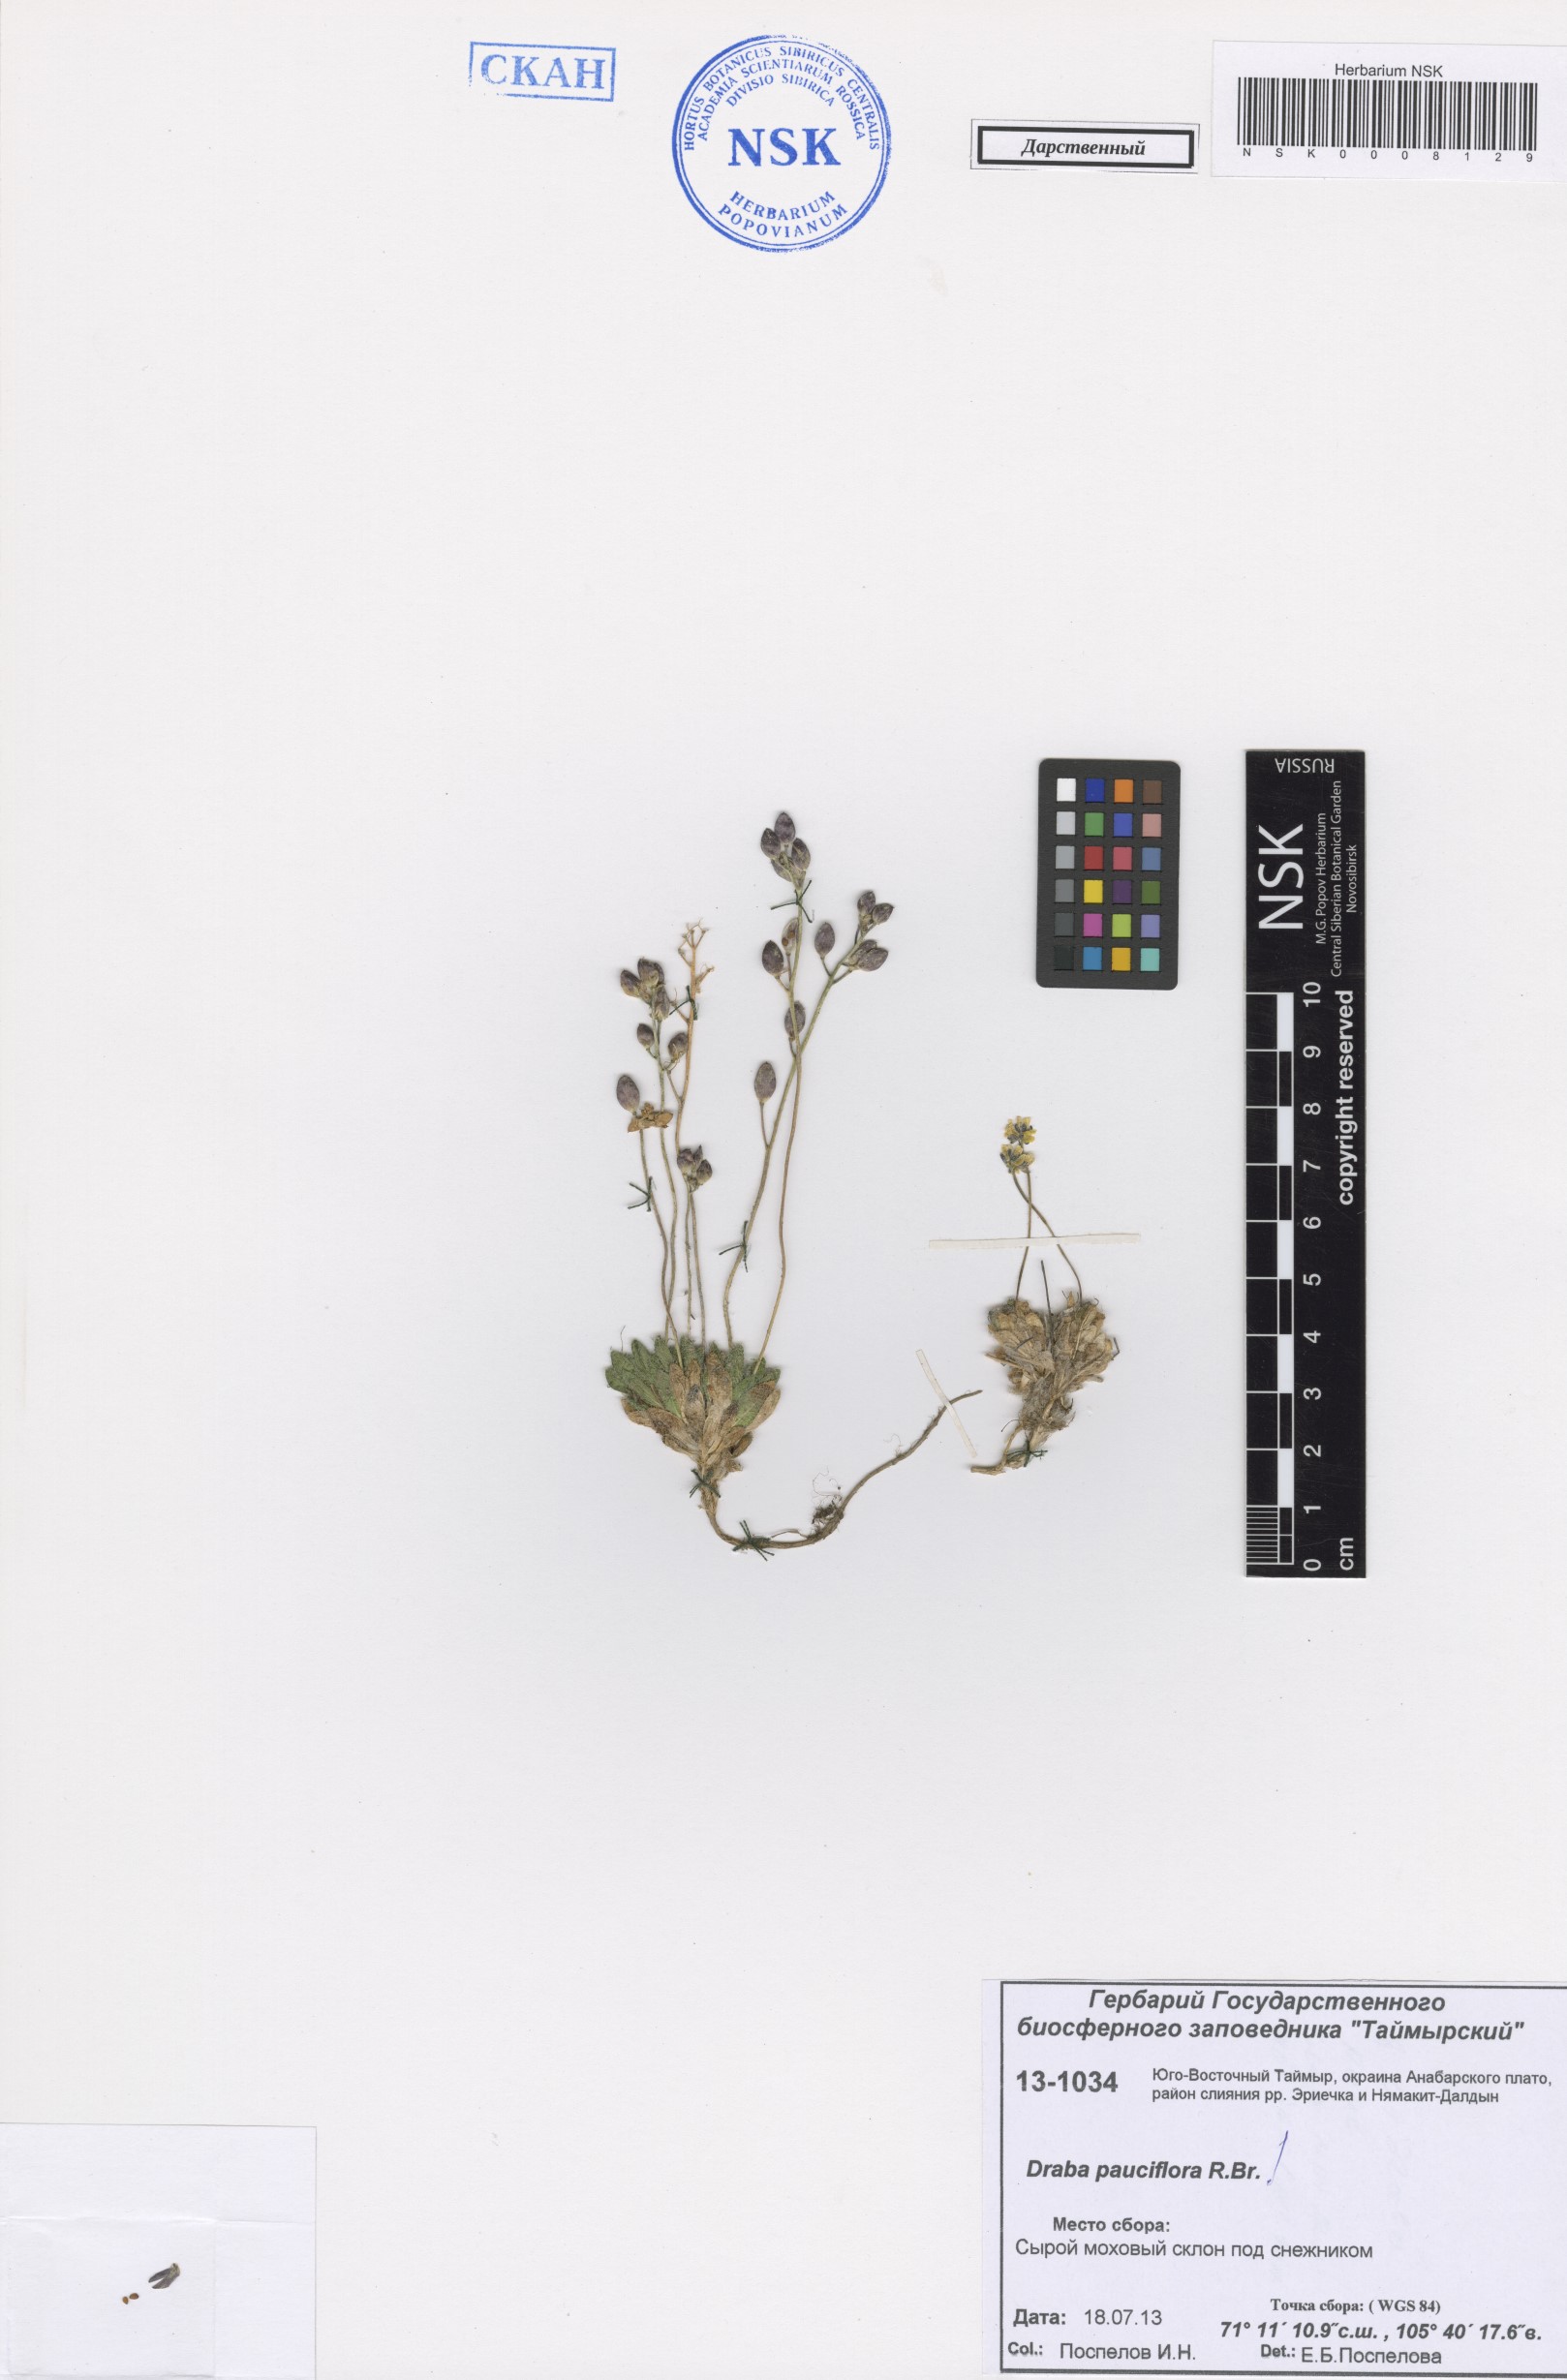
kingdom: Plantae
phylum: Tracheophyta
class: Magnoliopsida
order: Brassicales
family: Brassicaceae
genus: Draba
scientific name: Draba pauciflora
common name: Few-flowered draba
